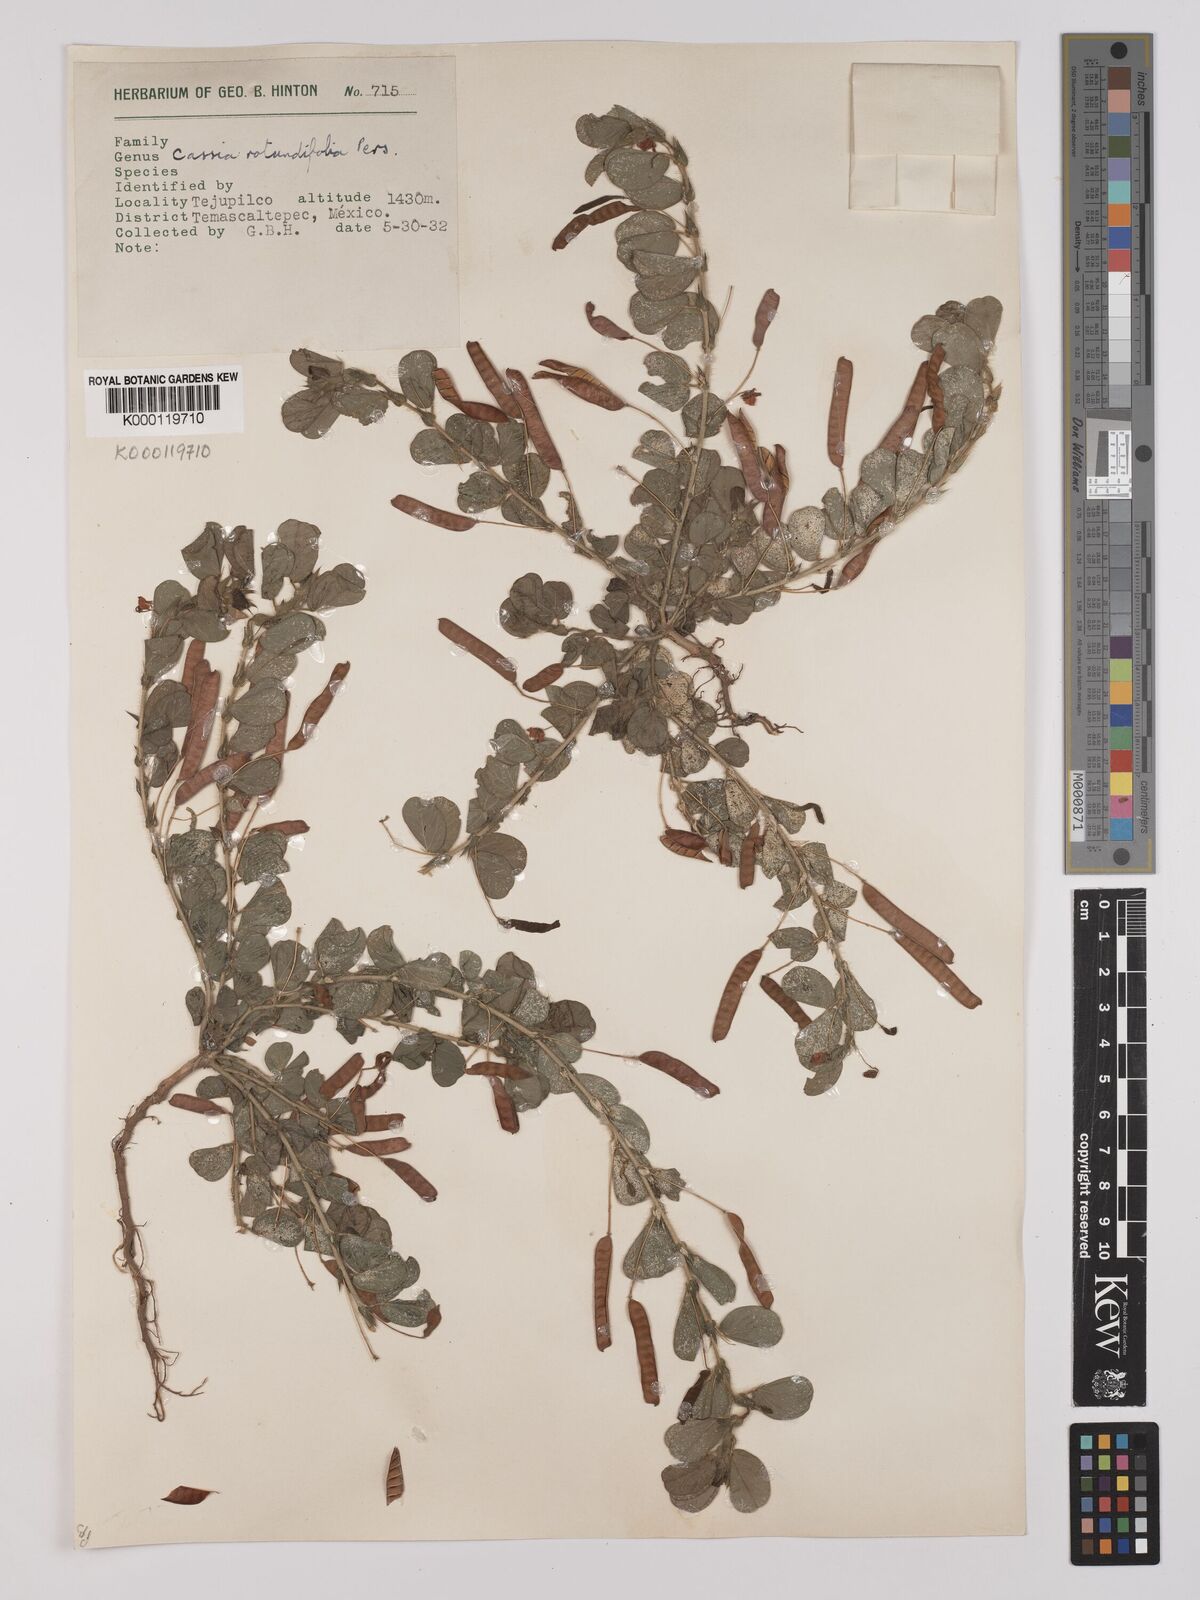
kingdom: Plantae
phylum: Tracheophyta
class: Magnoliopsida
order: Fabales
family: Fabaceae
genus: Chamaecrista
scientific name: Chamaecrista rotundifolia
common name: Round-leaf cassia
